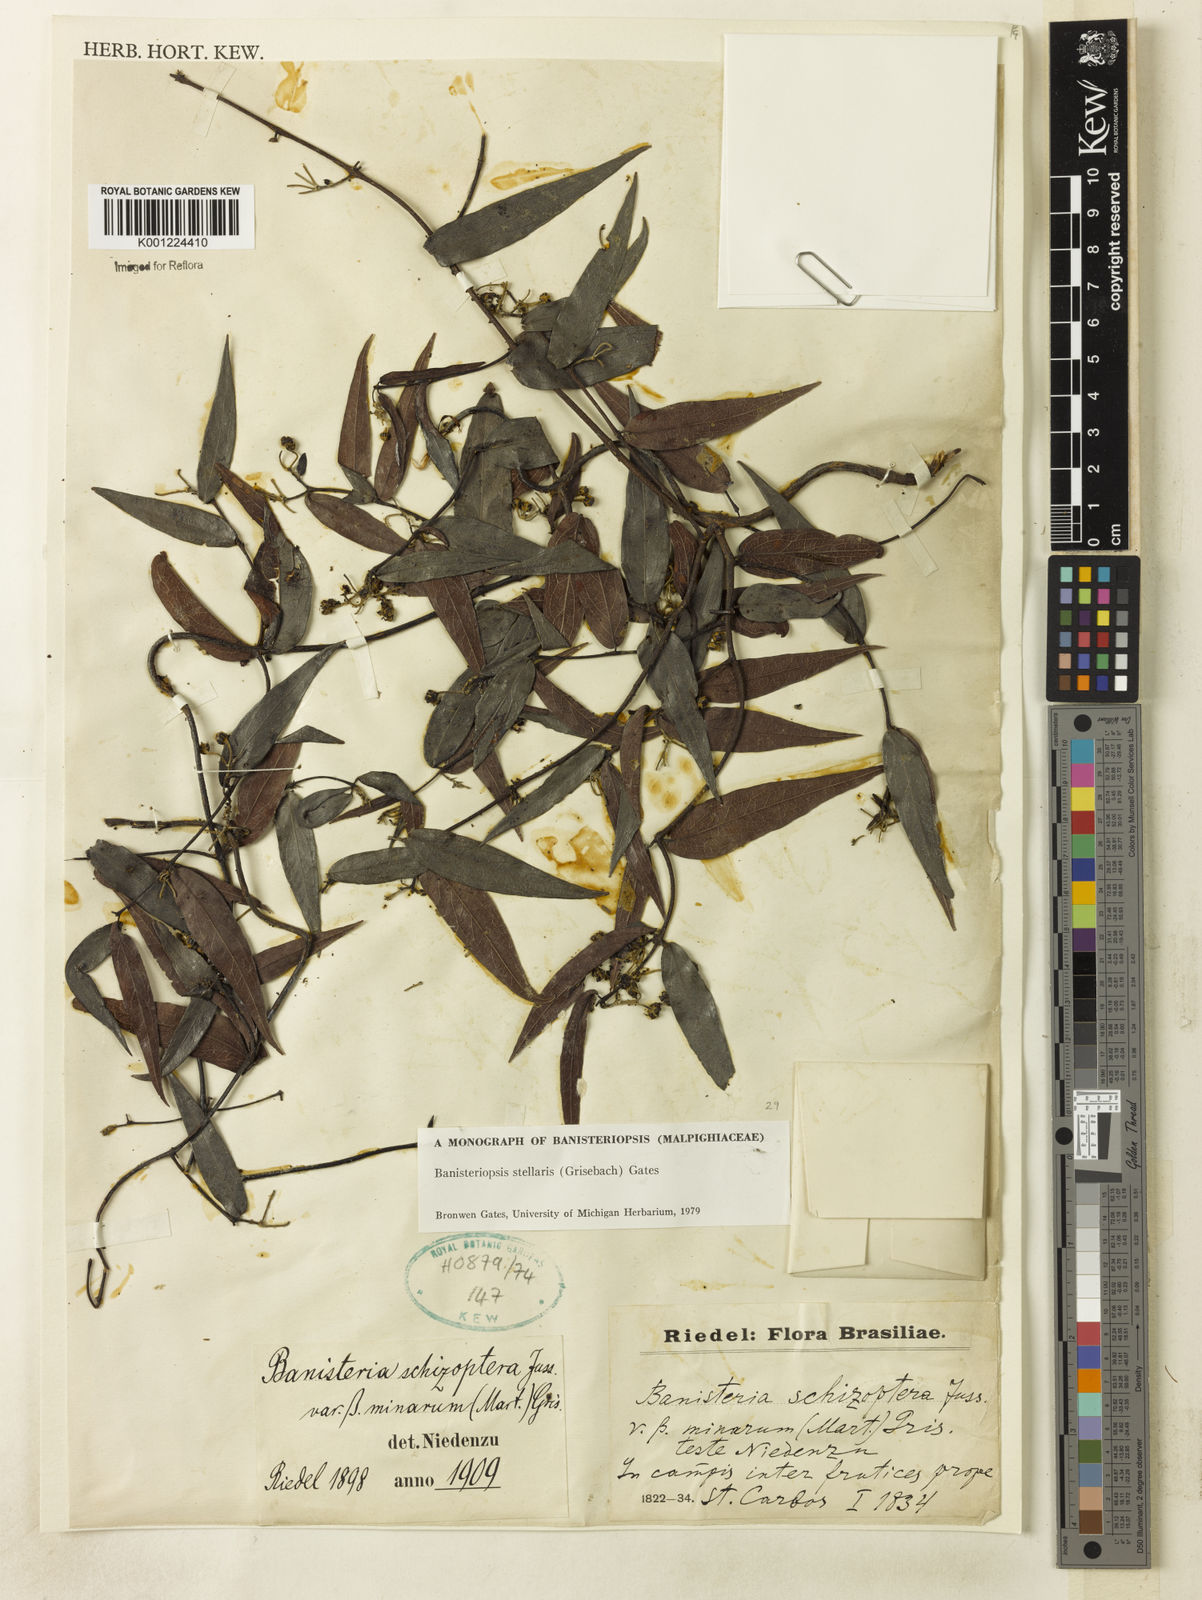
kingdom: Plantae
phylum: Tracheophyta
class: Magnoliopsida
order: Malpighiales
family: Malpighiaceae
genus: Banisteriopsis
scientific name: Banisteriopsis stellaris
